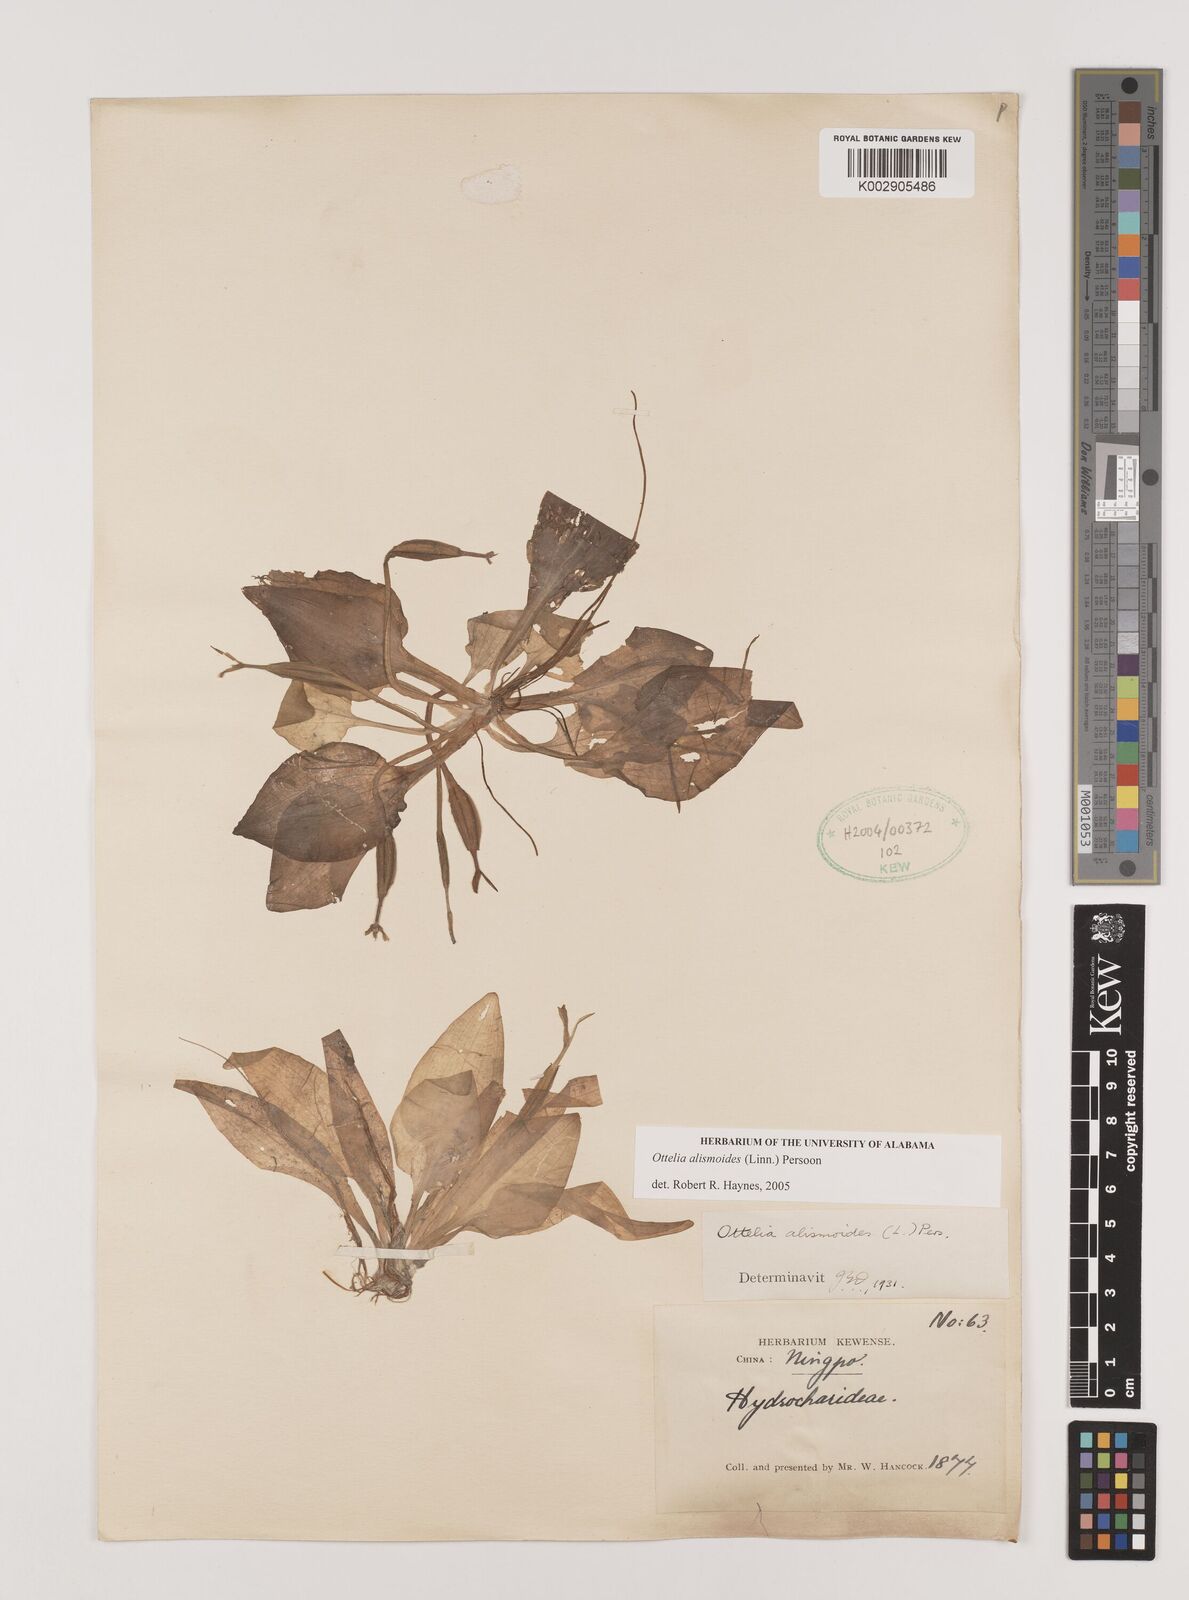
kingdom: Plantae
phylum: Tracheophyta
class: Liliopsida
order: Alismatales
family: Hydrocharitaceae
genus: Ottelia
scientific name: Ottelia alismoides
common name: Duck-lettuce
